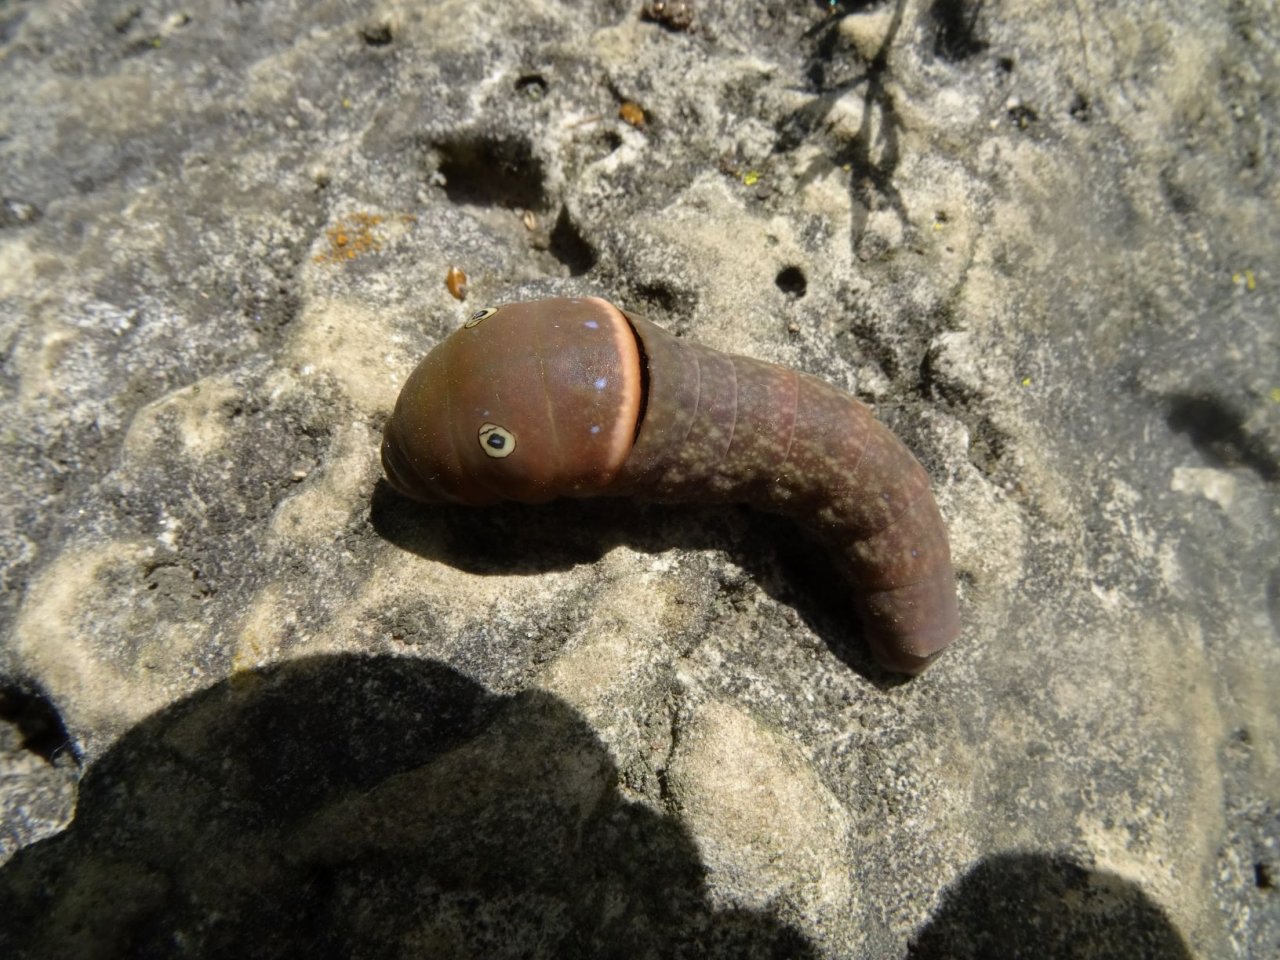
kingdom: Animalia
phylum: Arthropoda
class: Insecta
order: Lepidoptera
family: Papilionidae
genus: Pterourus
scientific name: Pterourus
